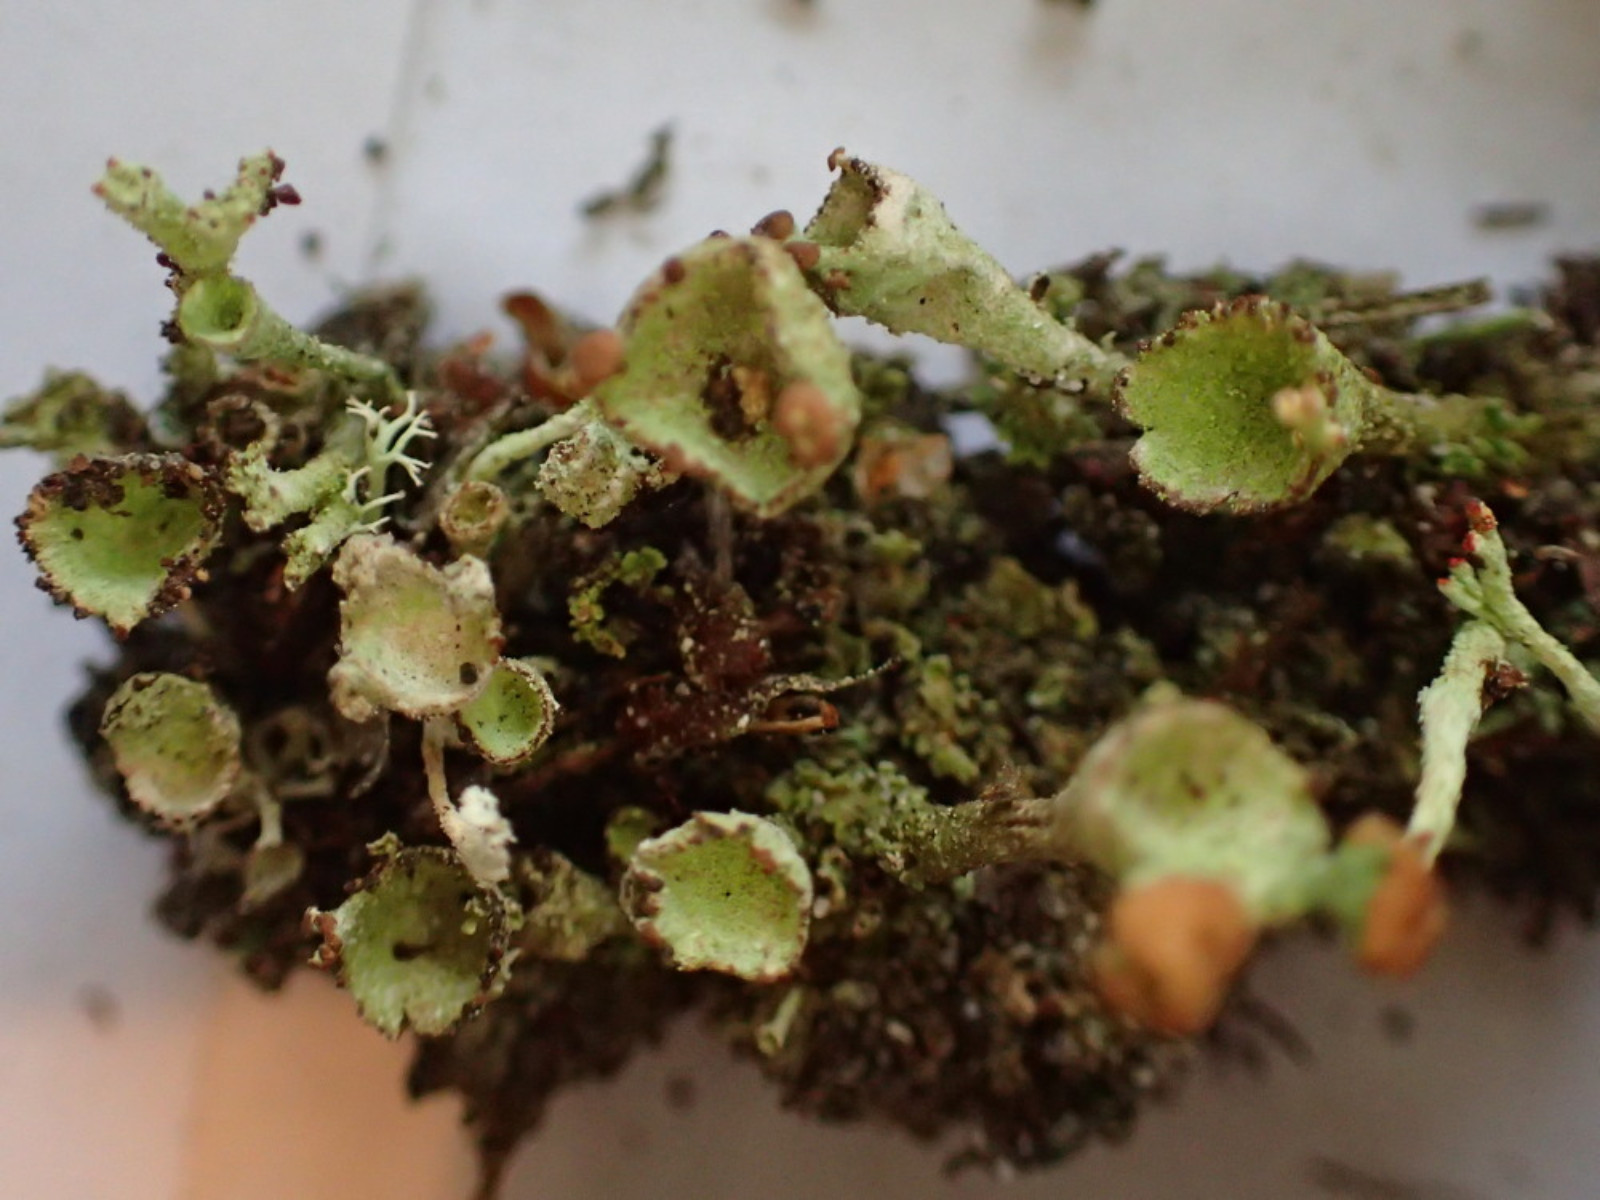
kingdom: Fungi
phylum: Ascomycota
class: Lecanoromycetes
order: Lecanorales
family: Cladoniaceae
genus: Cladonia
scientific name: Cladonia
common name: brungrøn bægerlav
